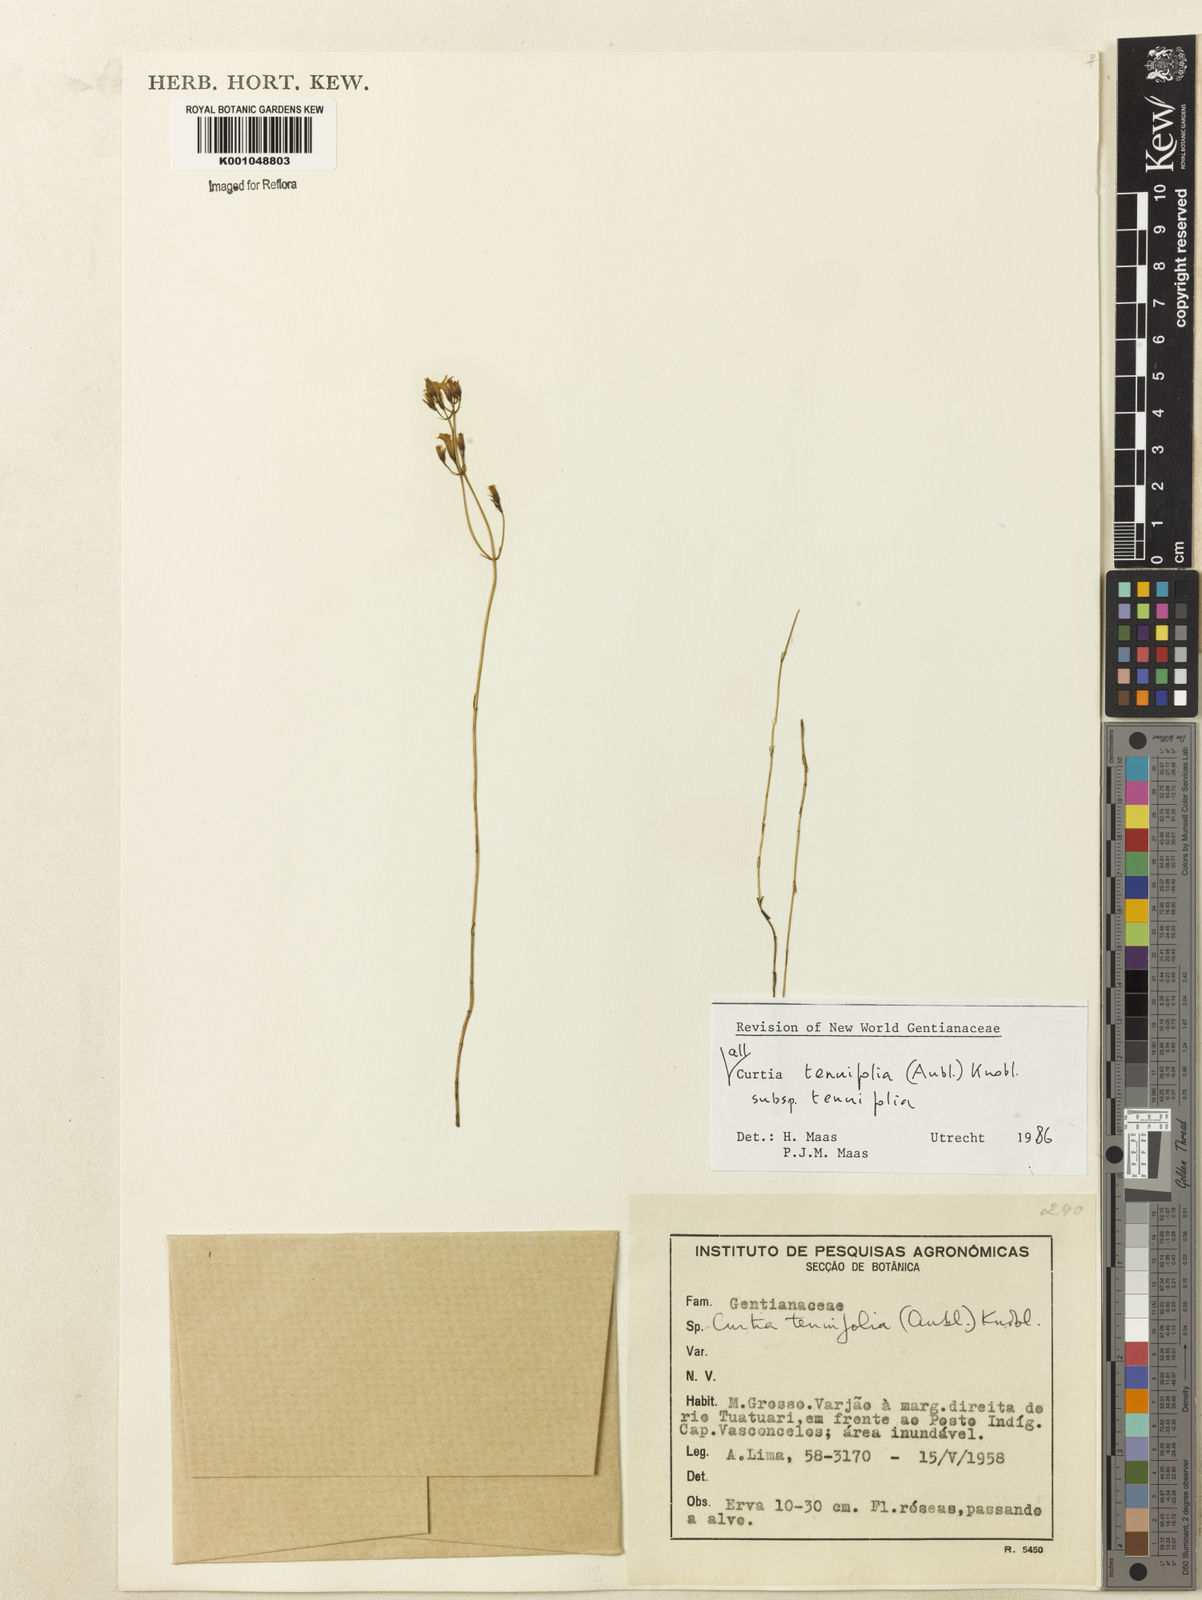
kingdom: Plantae
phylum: Tracheophyta
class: Magnoliopsida
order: Gentianales
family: Gentianaceae
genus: Curtia
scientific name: Curtia tenuifolia
